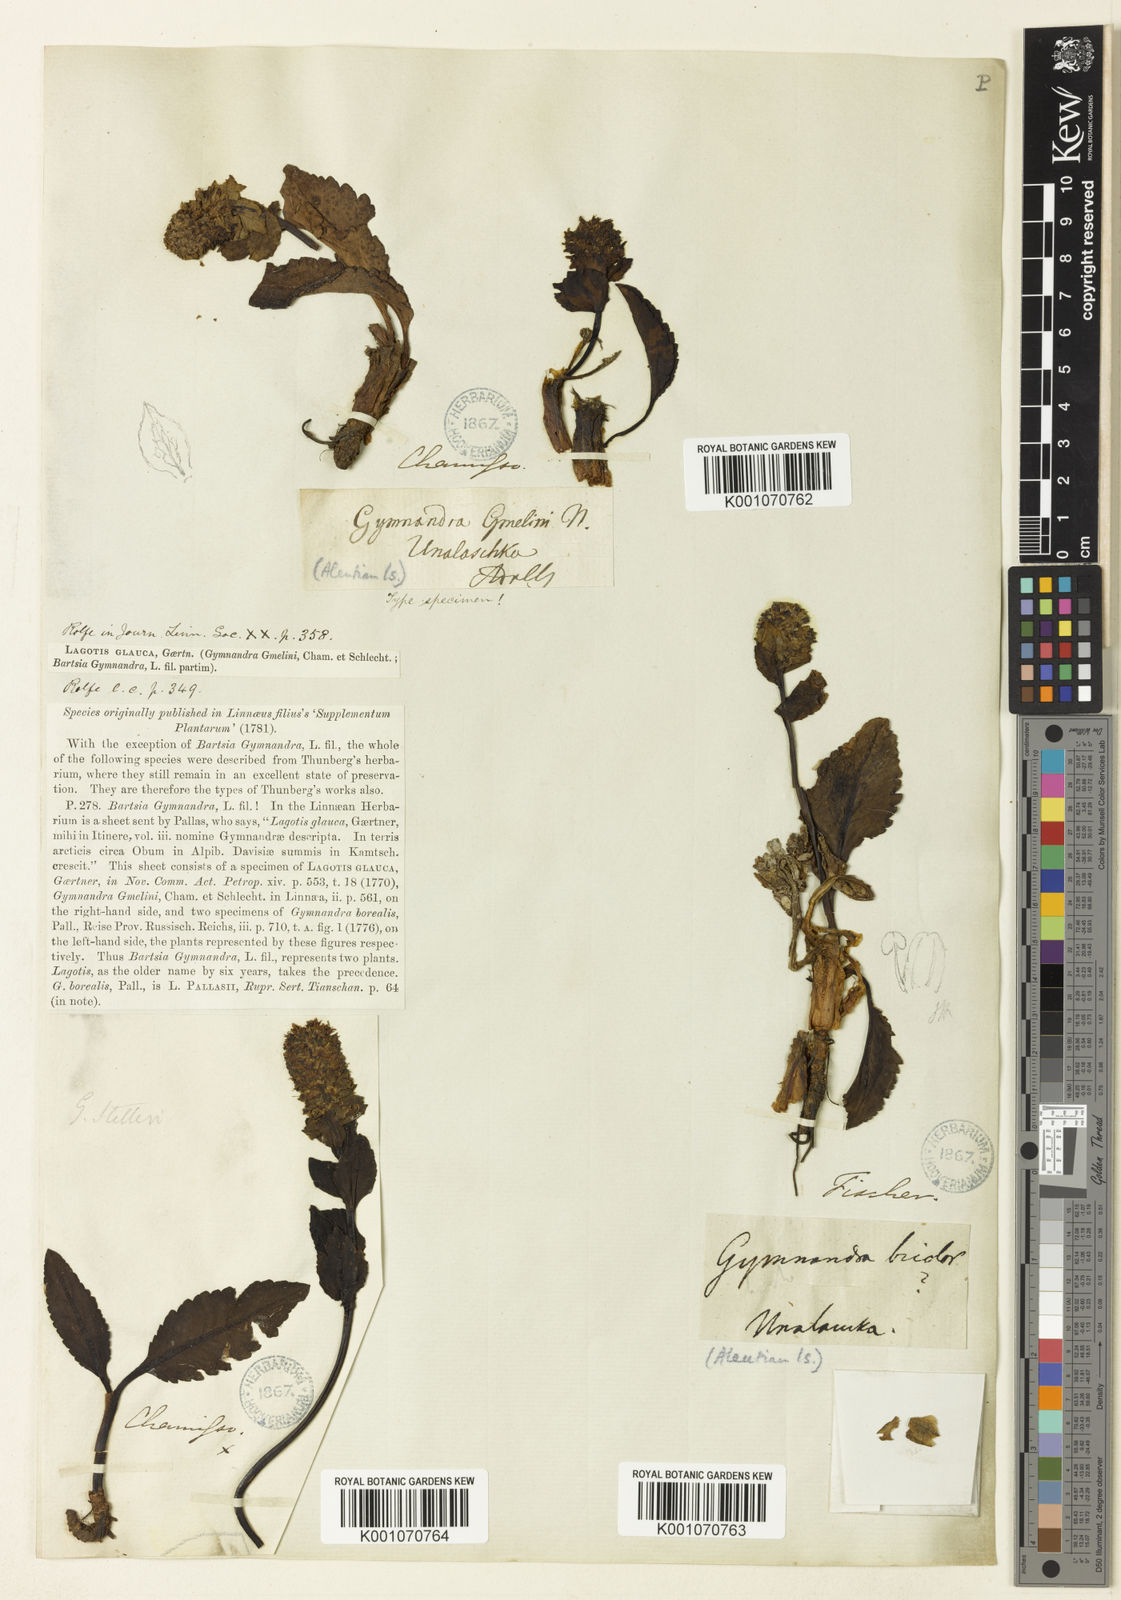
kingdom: Plantae
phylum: Tracheophyta
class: Magnoliopsida
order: Lamiales
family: Plantaginaceae
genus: Lagotis
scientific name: Lagotis glauca
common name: Glaucous weaselsnout
